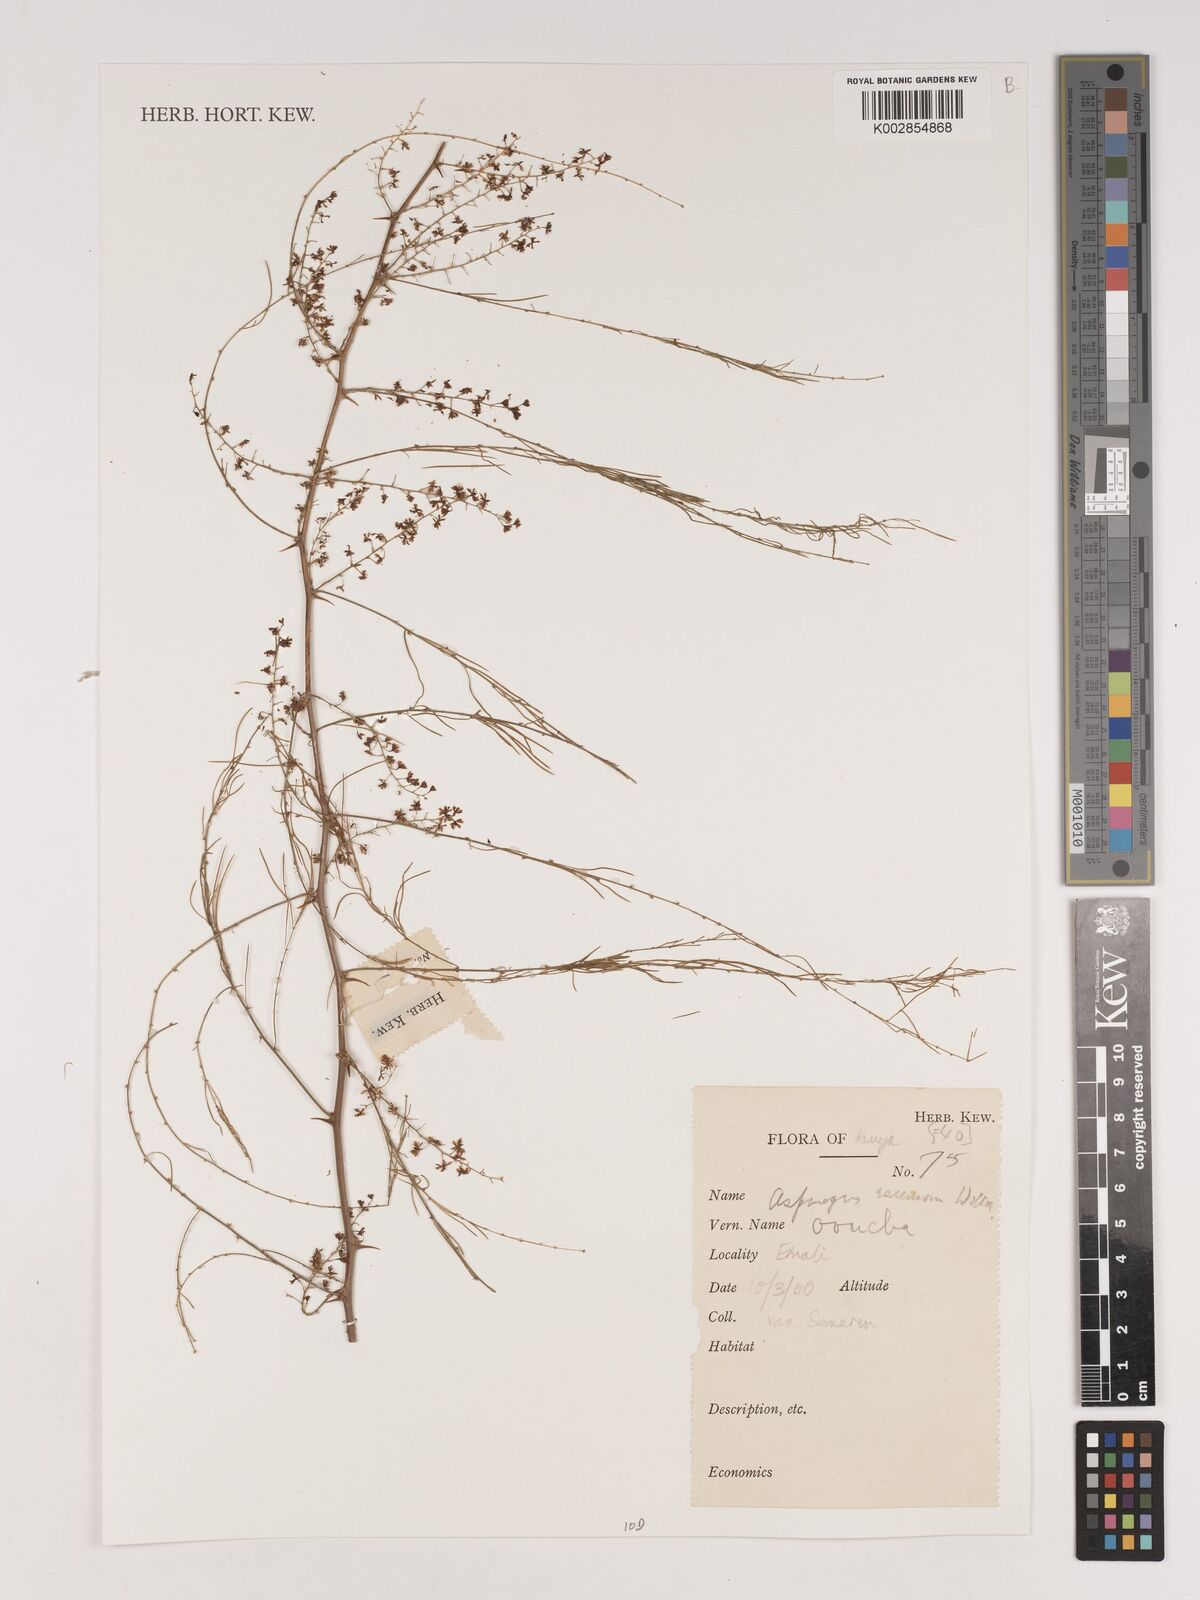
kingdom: Plantae
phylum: Tracheophyta
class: Liliopsida
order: Asparagales
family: Asparagaceae
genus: Asparagus
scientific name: Asparagus racemosus
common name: Asparagus-fern
